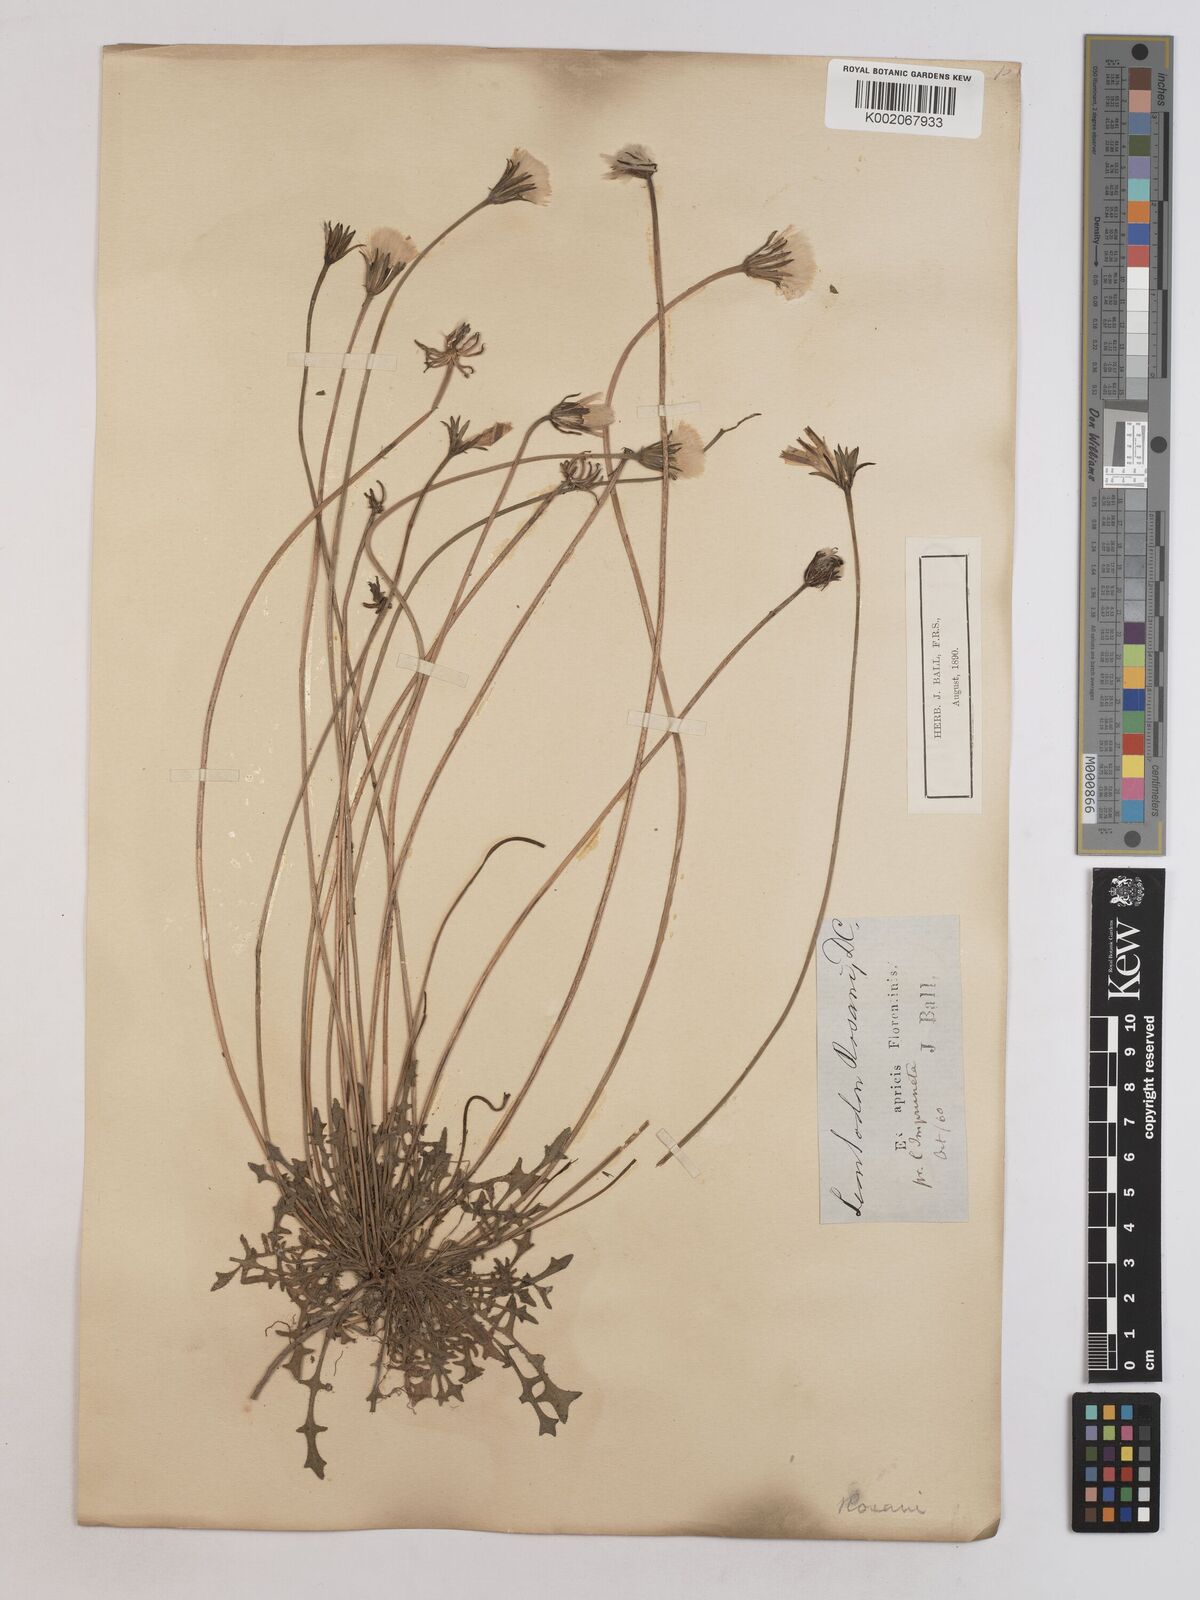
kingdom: Plantae
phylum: Tracheophyta
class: Magnoliopsida
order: Asterales
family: Asteraceae
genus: Leontodon
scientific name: Leontodon rosanoi
